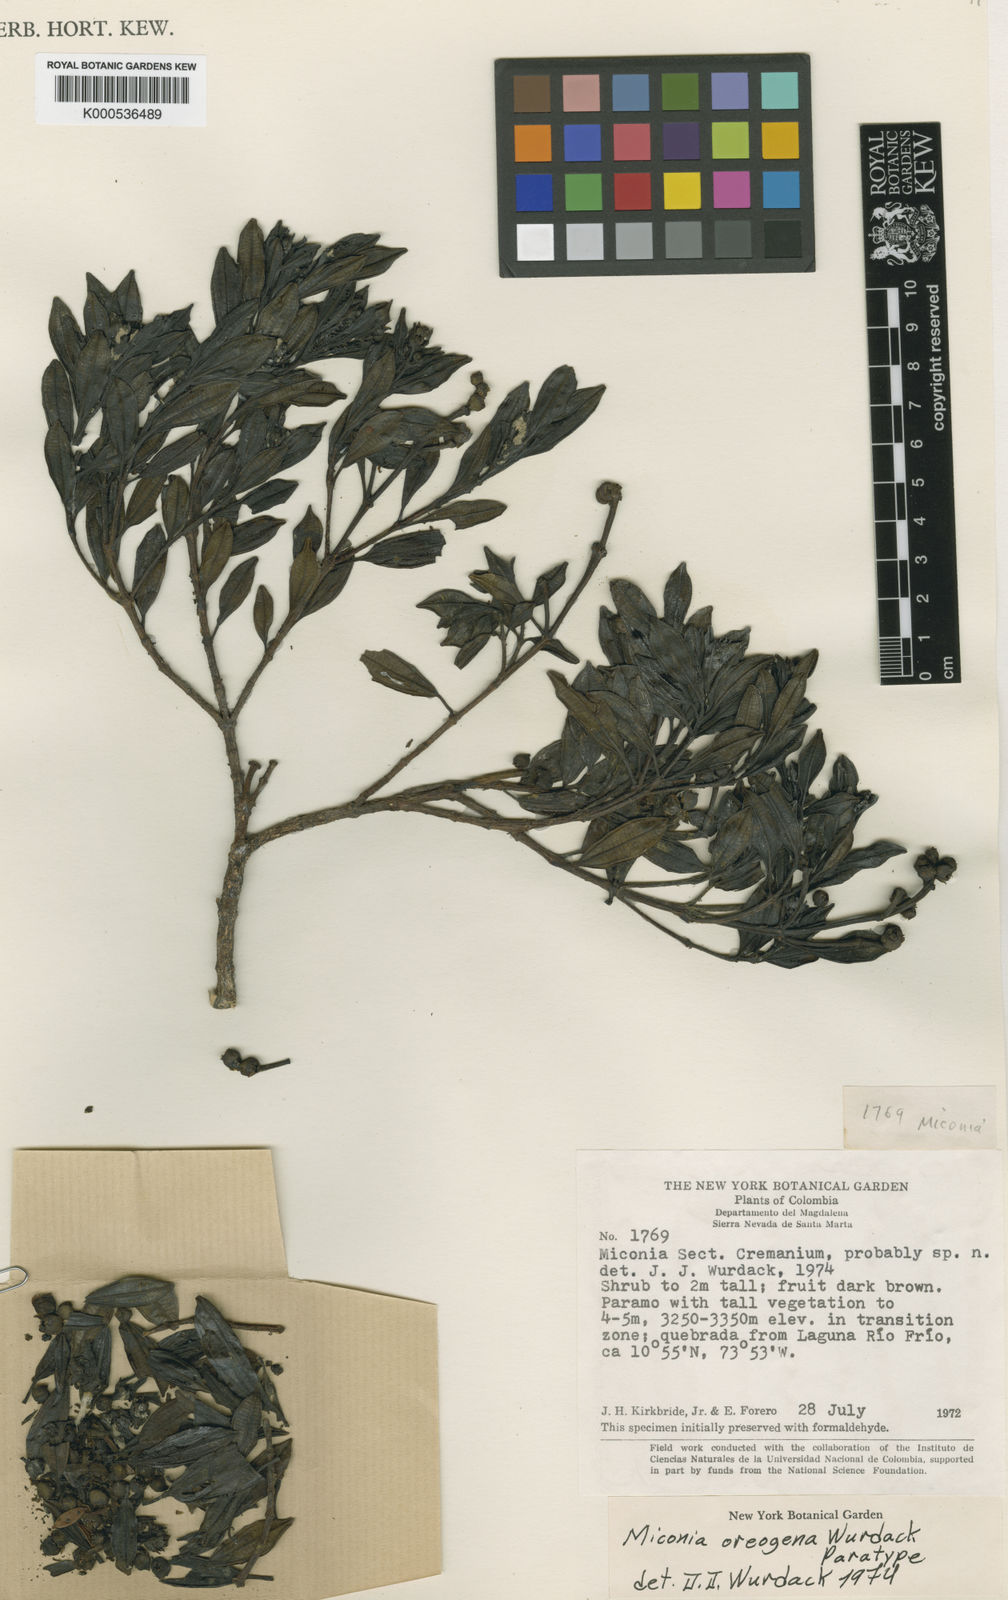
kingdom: Plantae
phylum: Tracheophyta
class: Magnoliopsida
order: Myrtales
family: Melastomataceae
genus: Miconia
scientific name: Miconia oreogena
